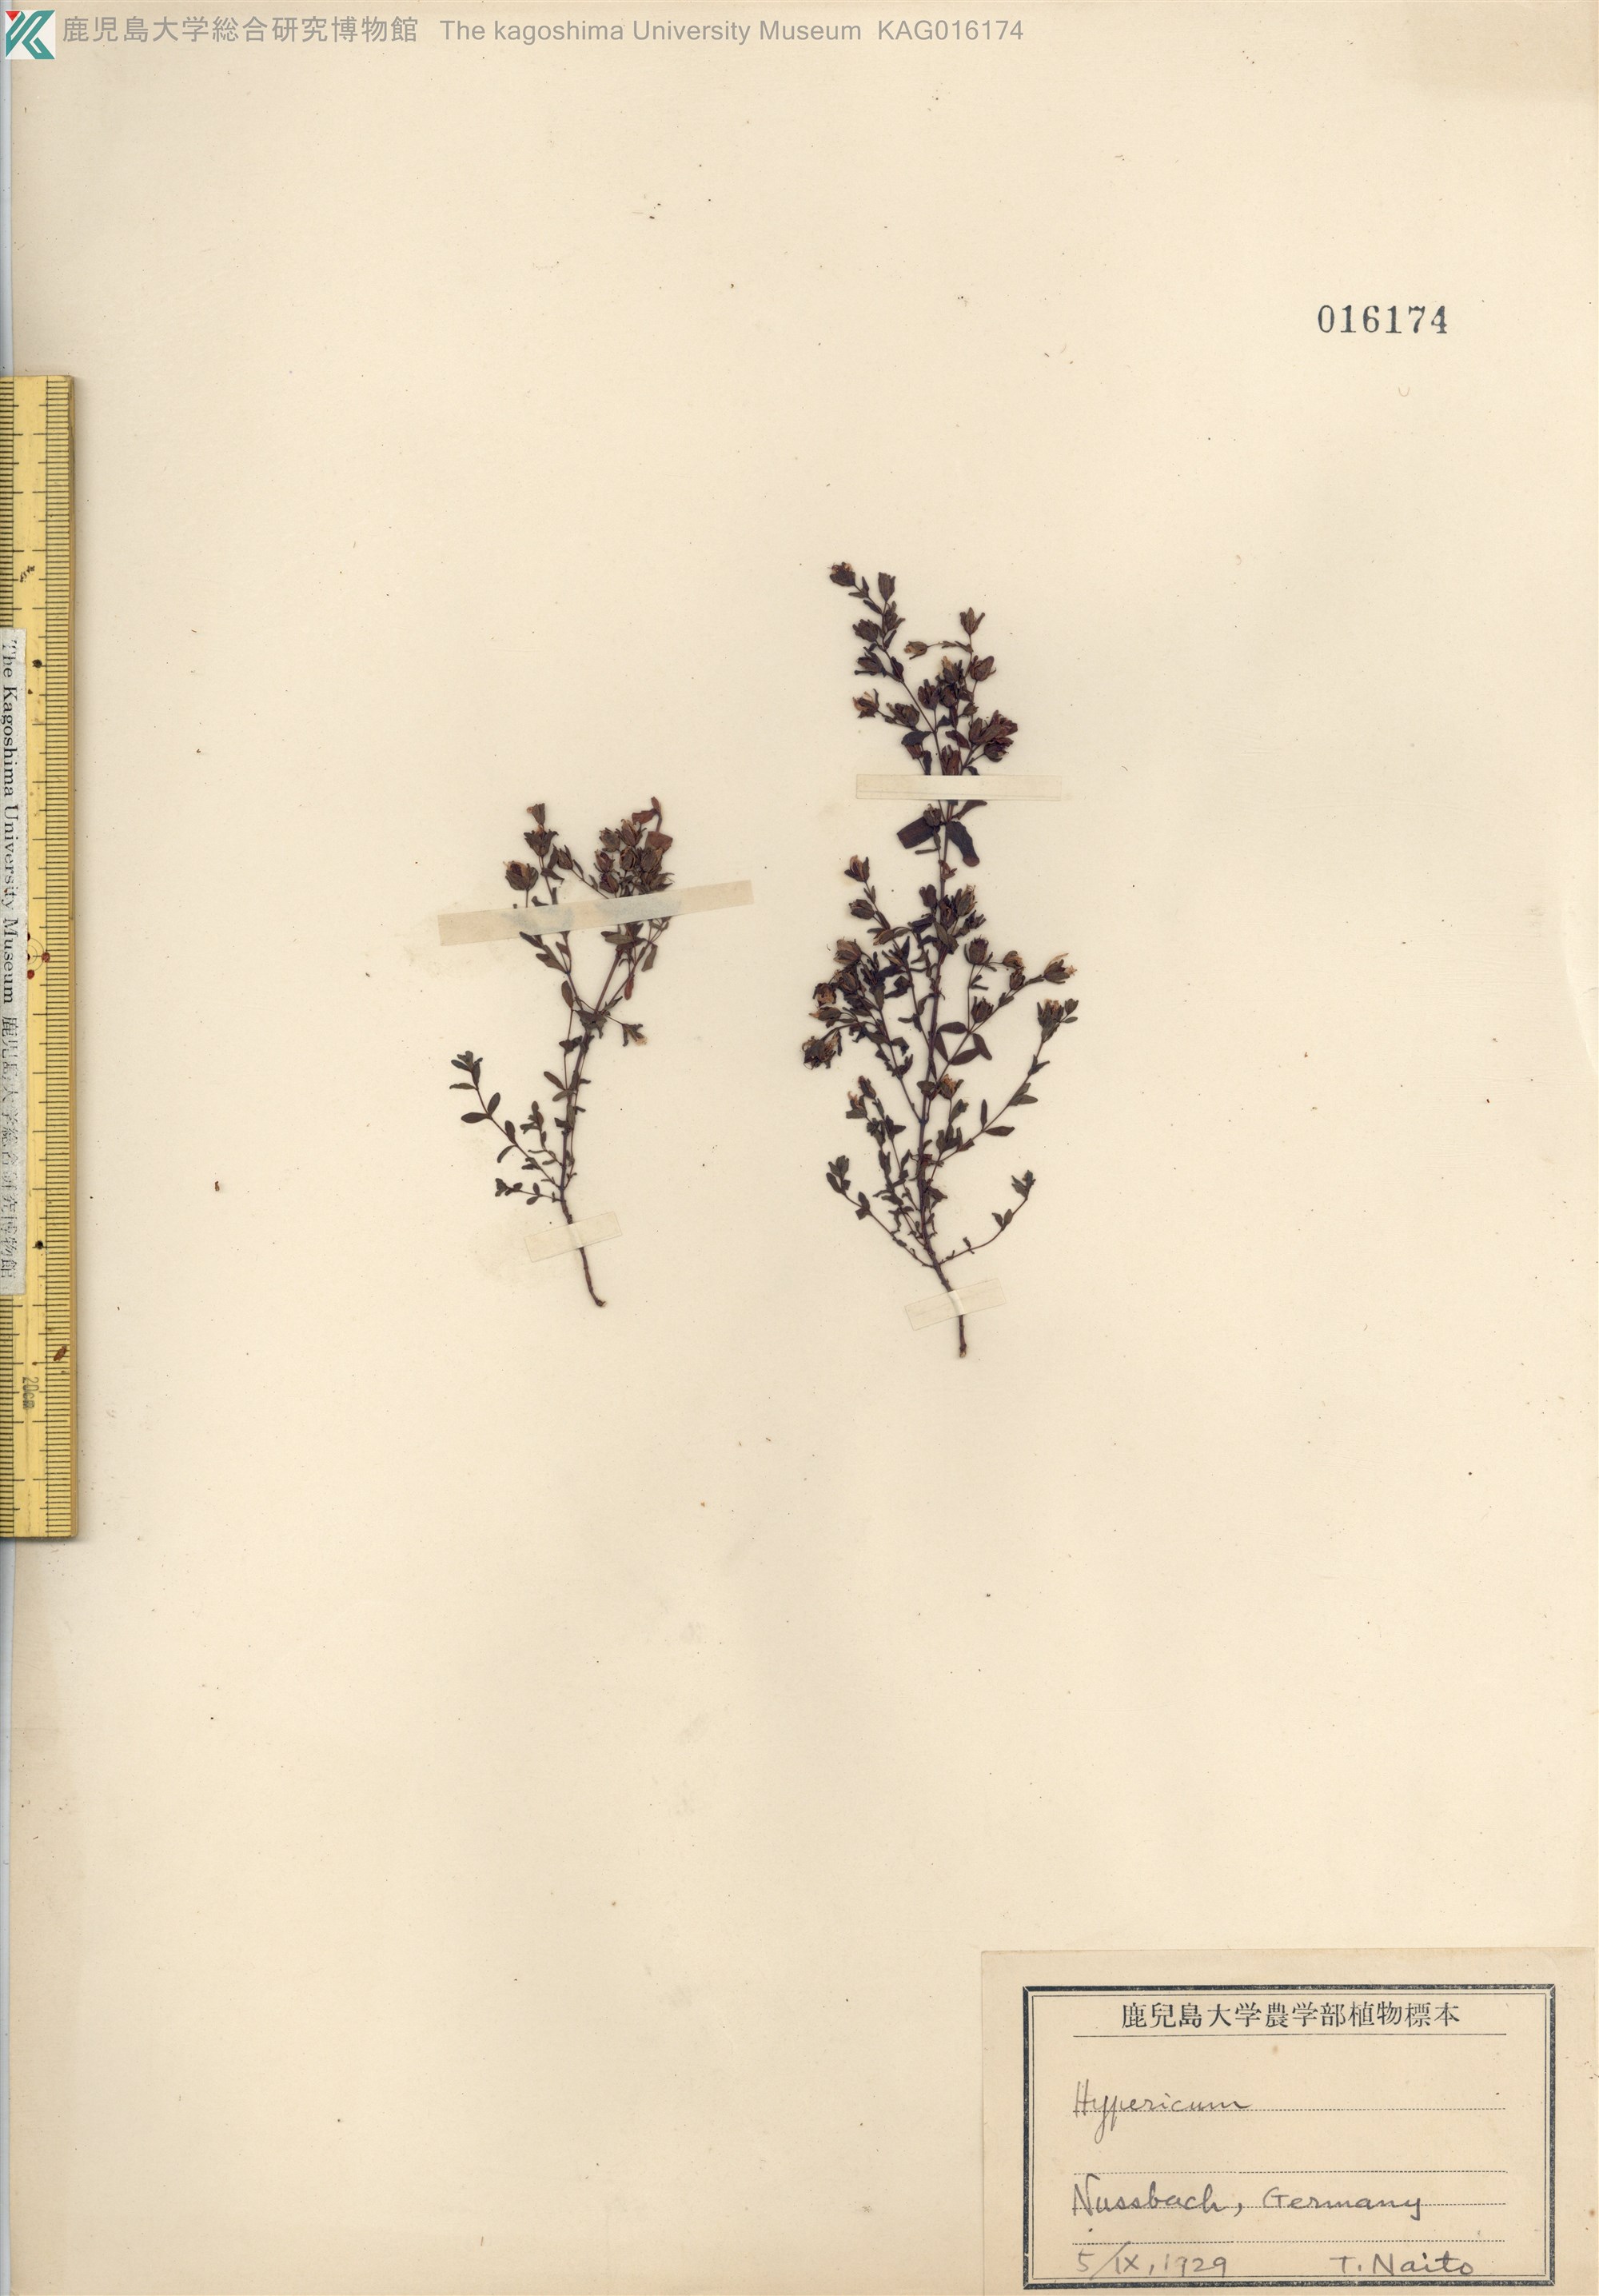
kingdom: Plantae
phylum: Tracheophyta
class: Magnoliopsida
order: Malpighiales
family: Hypericaceae
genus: Hypericum
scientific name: Hypericum
